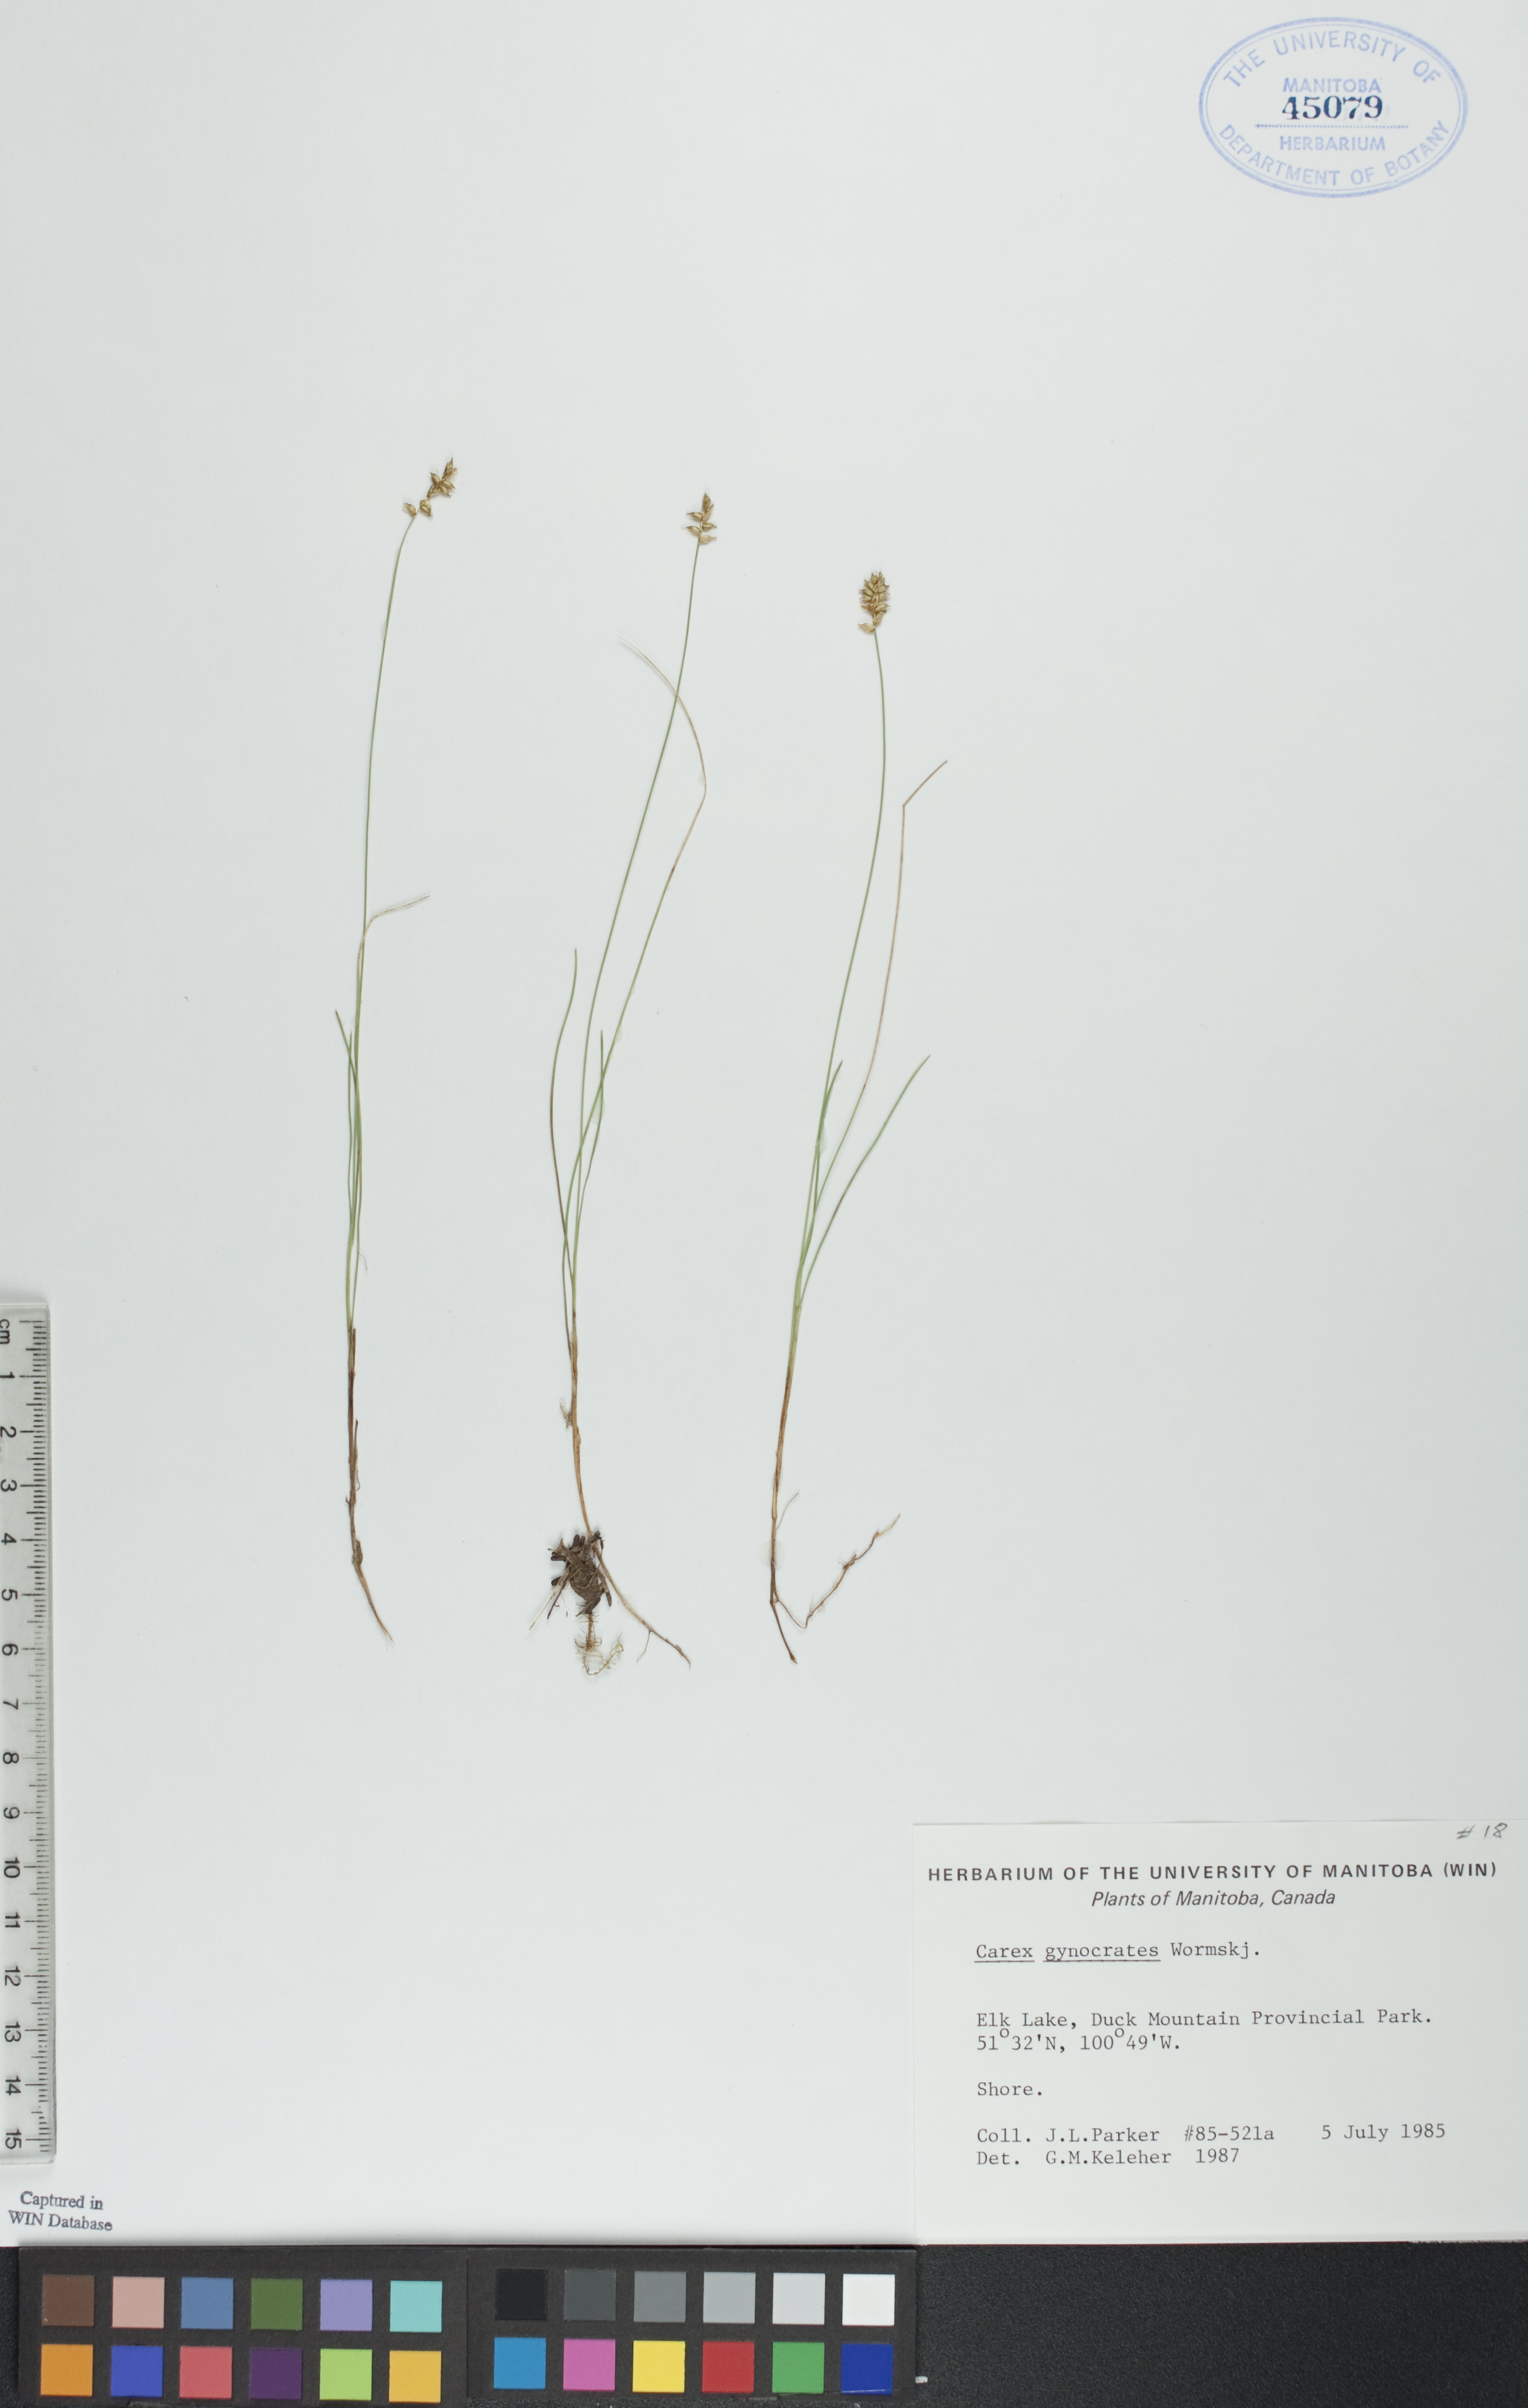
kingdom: Plantae
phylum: Tracheophyta
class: Liliopsida
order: Poales
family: Cyperaceae
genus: Carex
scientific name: Carex nardina
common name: Nard sedge
